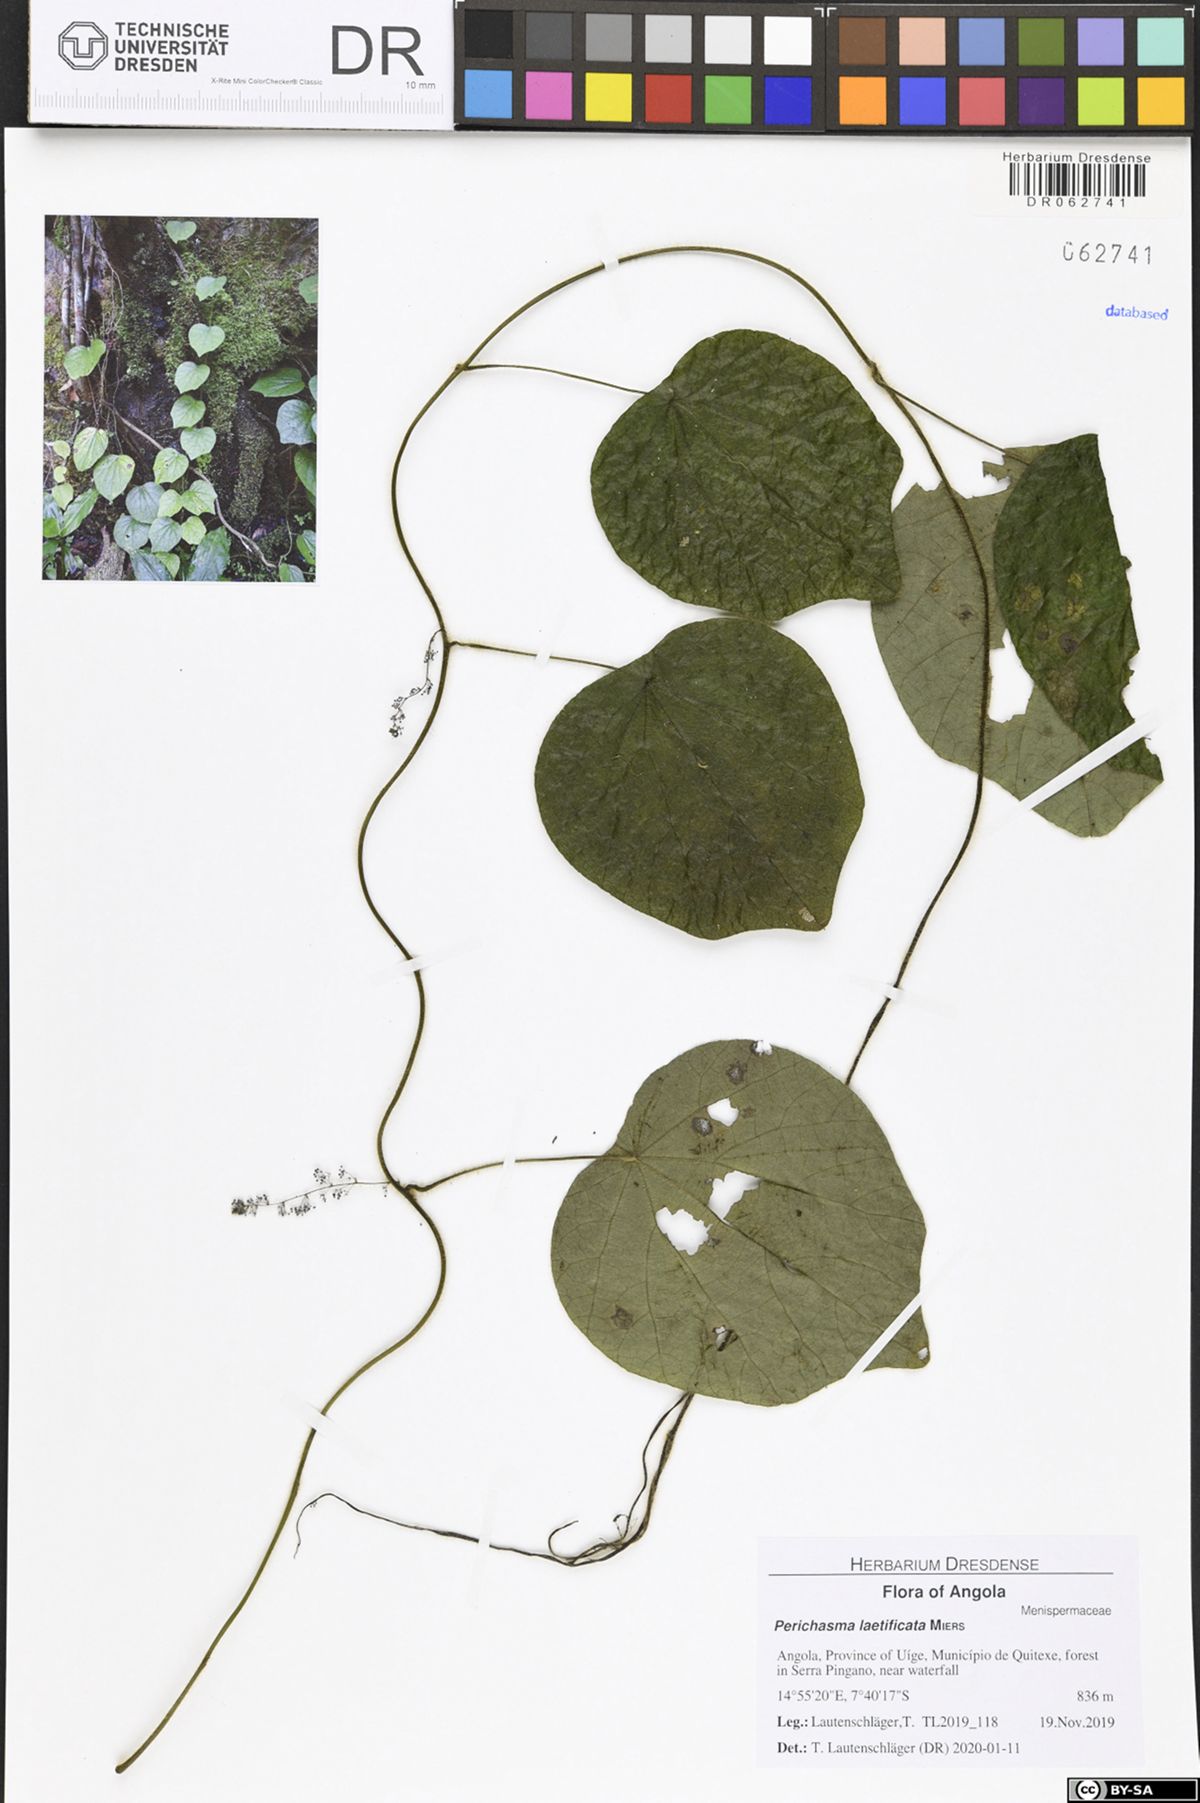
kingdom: Plantae
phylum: Tracheophyta
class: Magnoliopsida
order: Ranunculales
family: Menispermaceae
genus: Cissampelos
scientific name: Cissampelos owariensis
